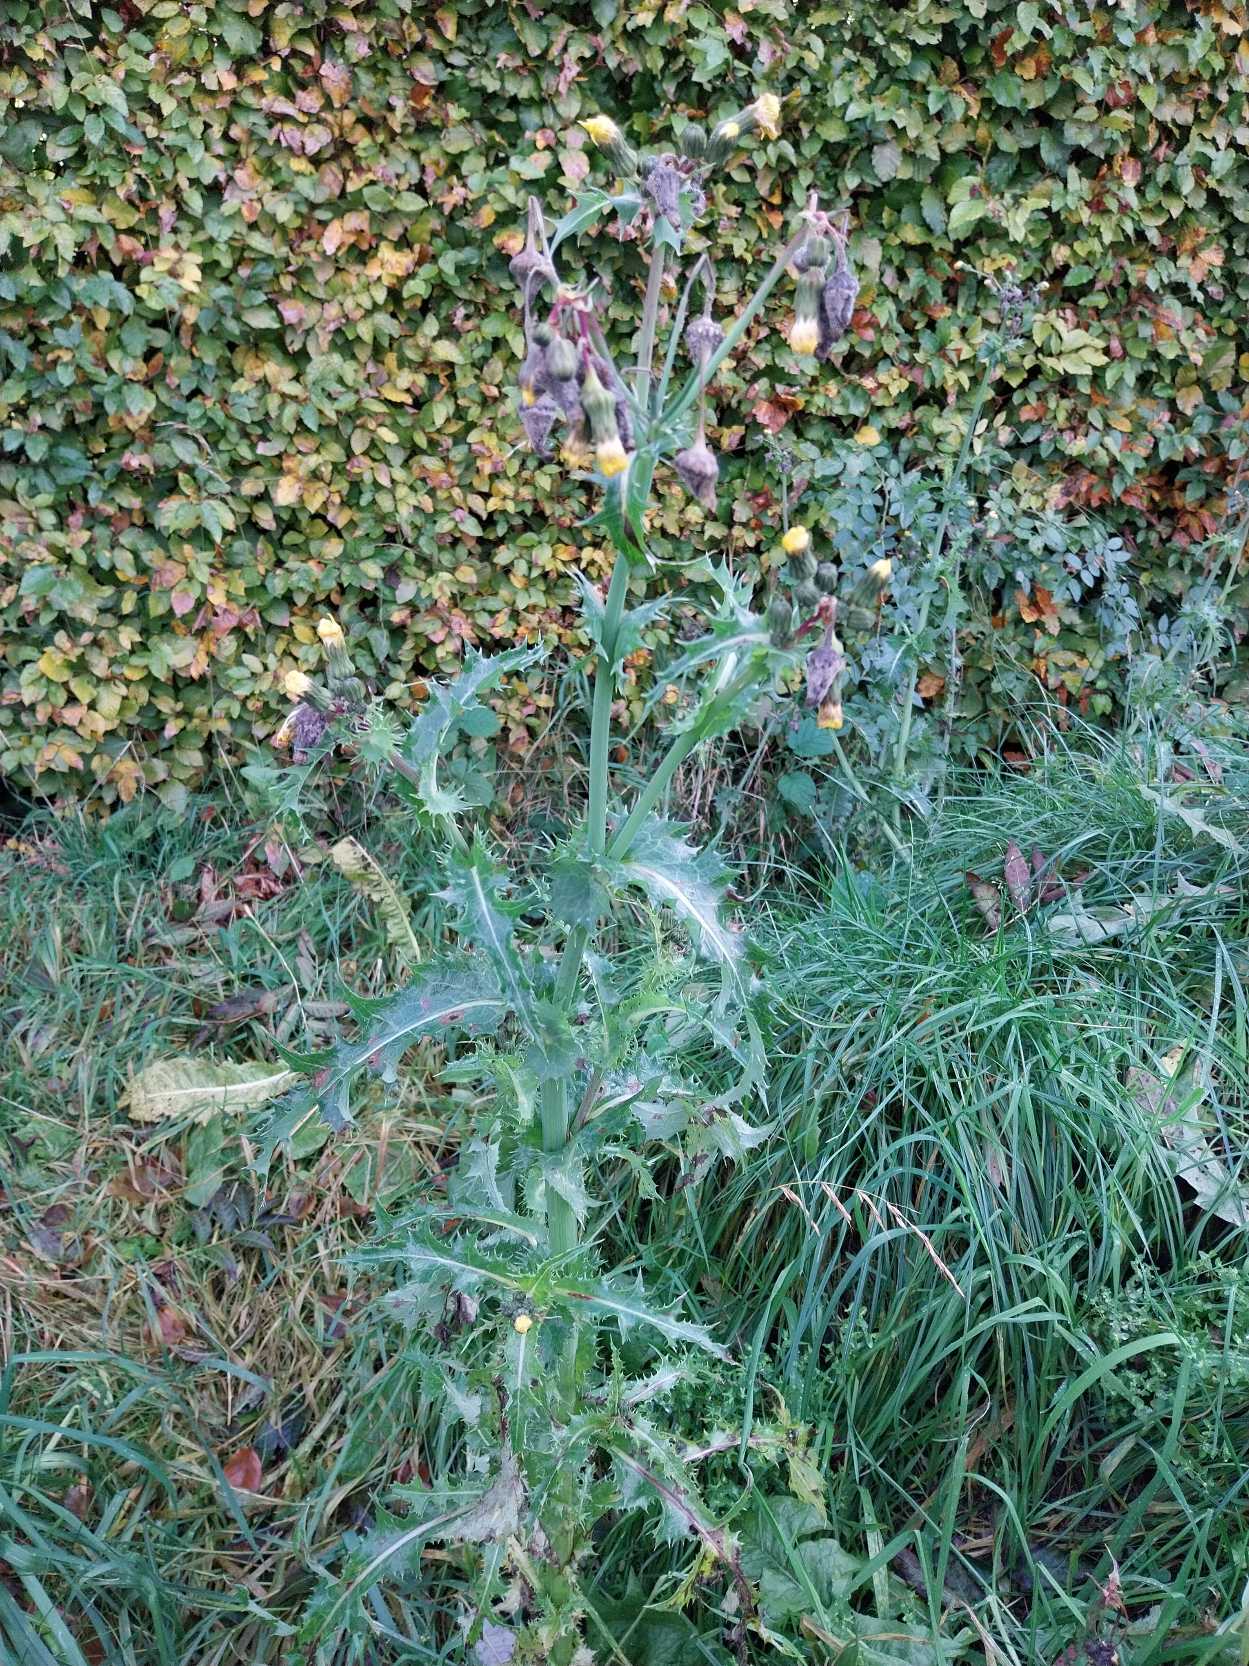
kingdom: Plantae
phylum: Tracheophyta
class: Magnoliopsida
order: Asterales
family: Asteraceae
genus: Sonchus
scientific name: Sonchus asper
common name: Ru svinemælk
